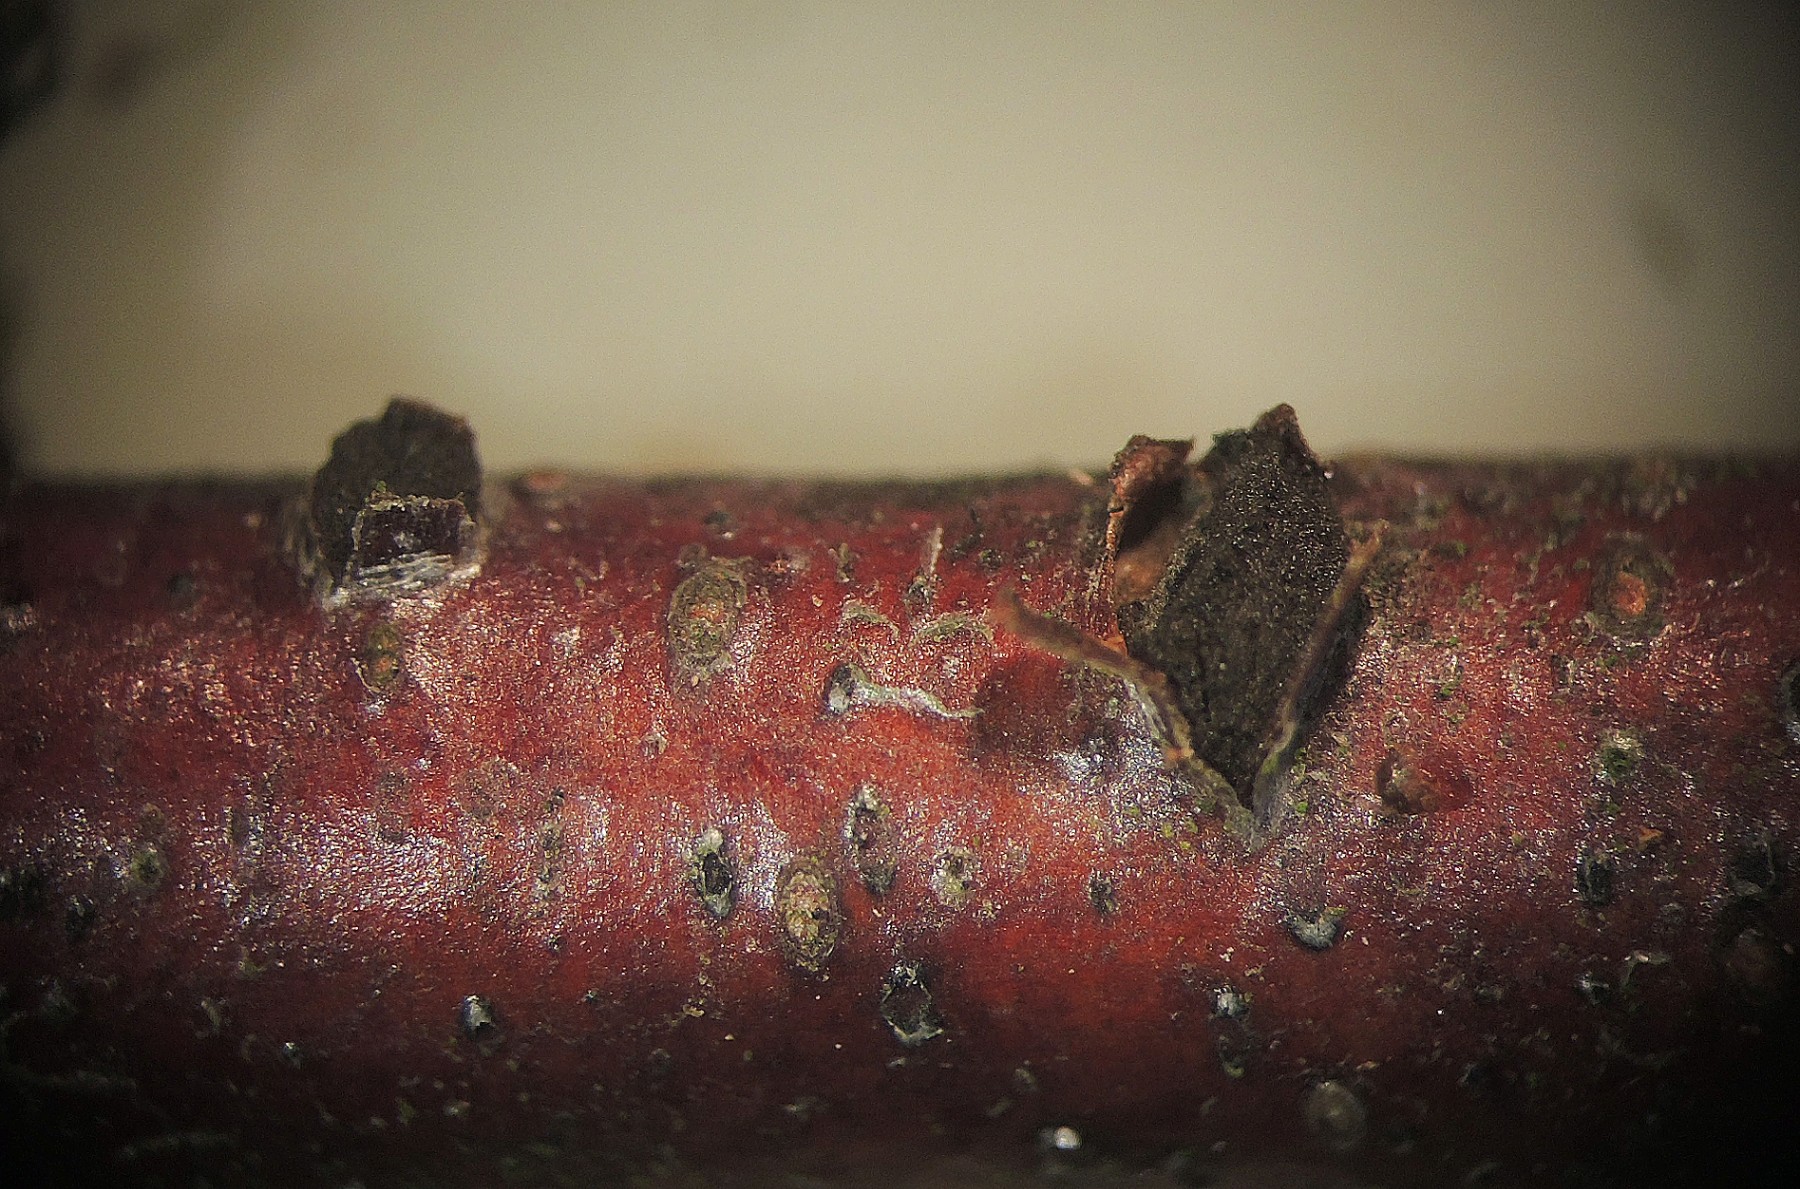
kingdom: Fungi
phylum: Ascomycota
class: Sordariomycetes
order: Diaporthales
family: Coryneaceae
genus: Coryneum
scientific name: Coryneum lanciforme
